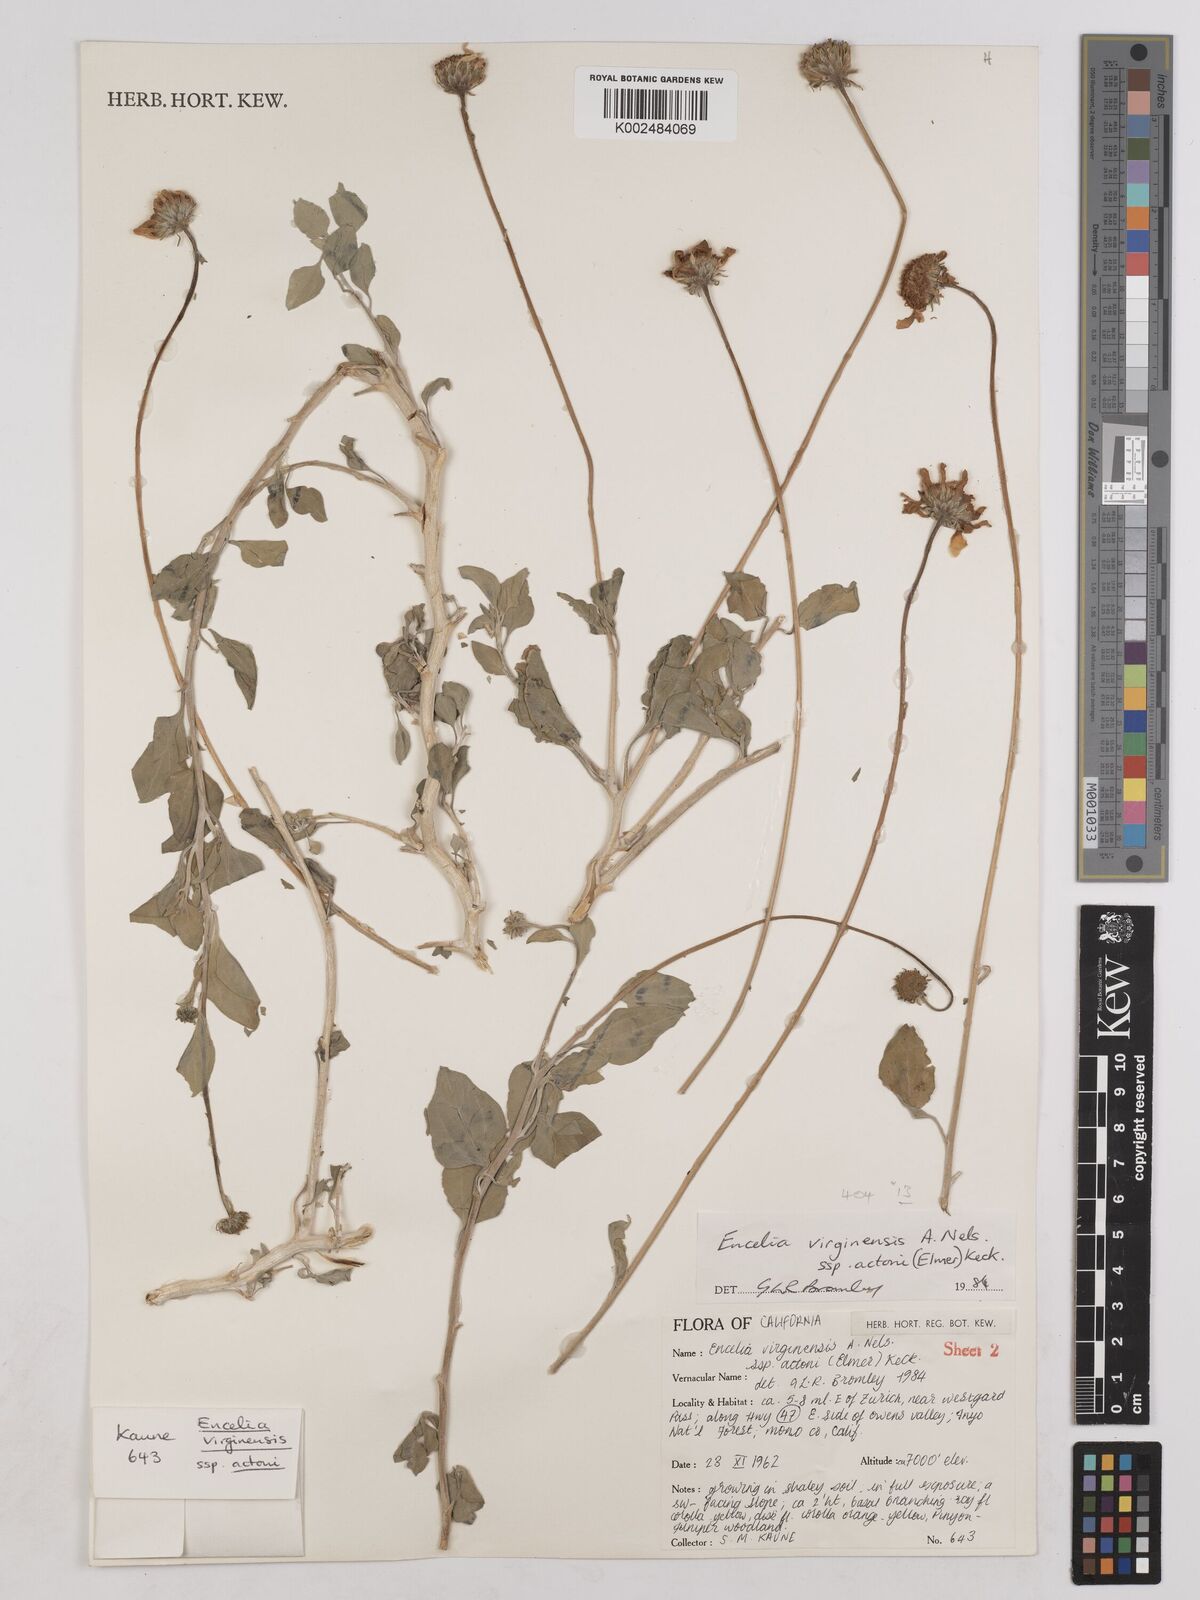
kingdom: Plantae
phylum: Tracheophyta
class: Magnoliopsida
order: Asterales
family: Asteraceae
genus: Encelia
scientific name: Encelia actoni
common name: Acton encelia
